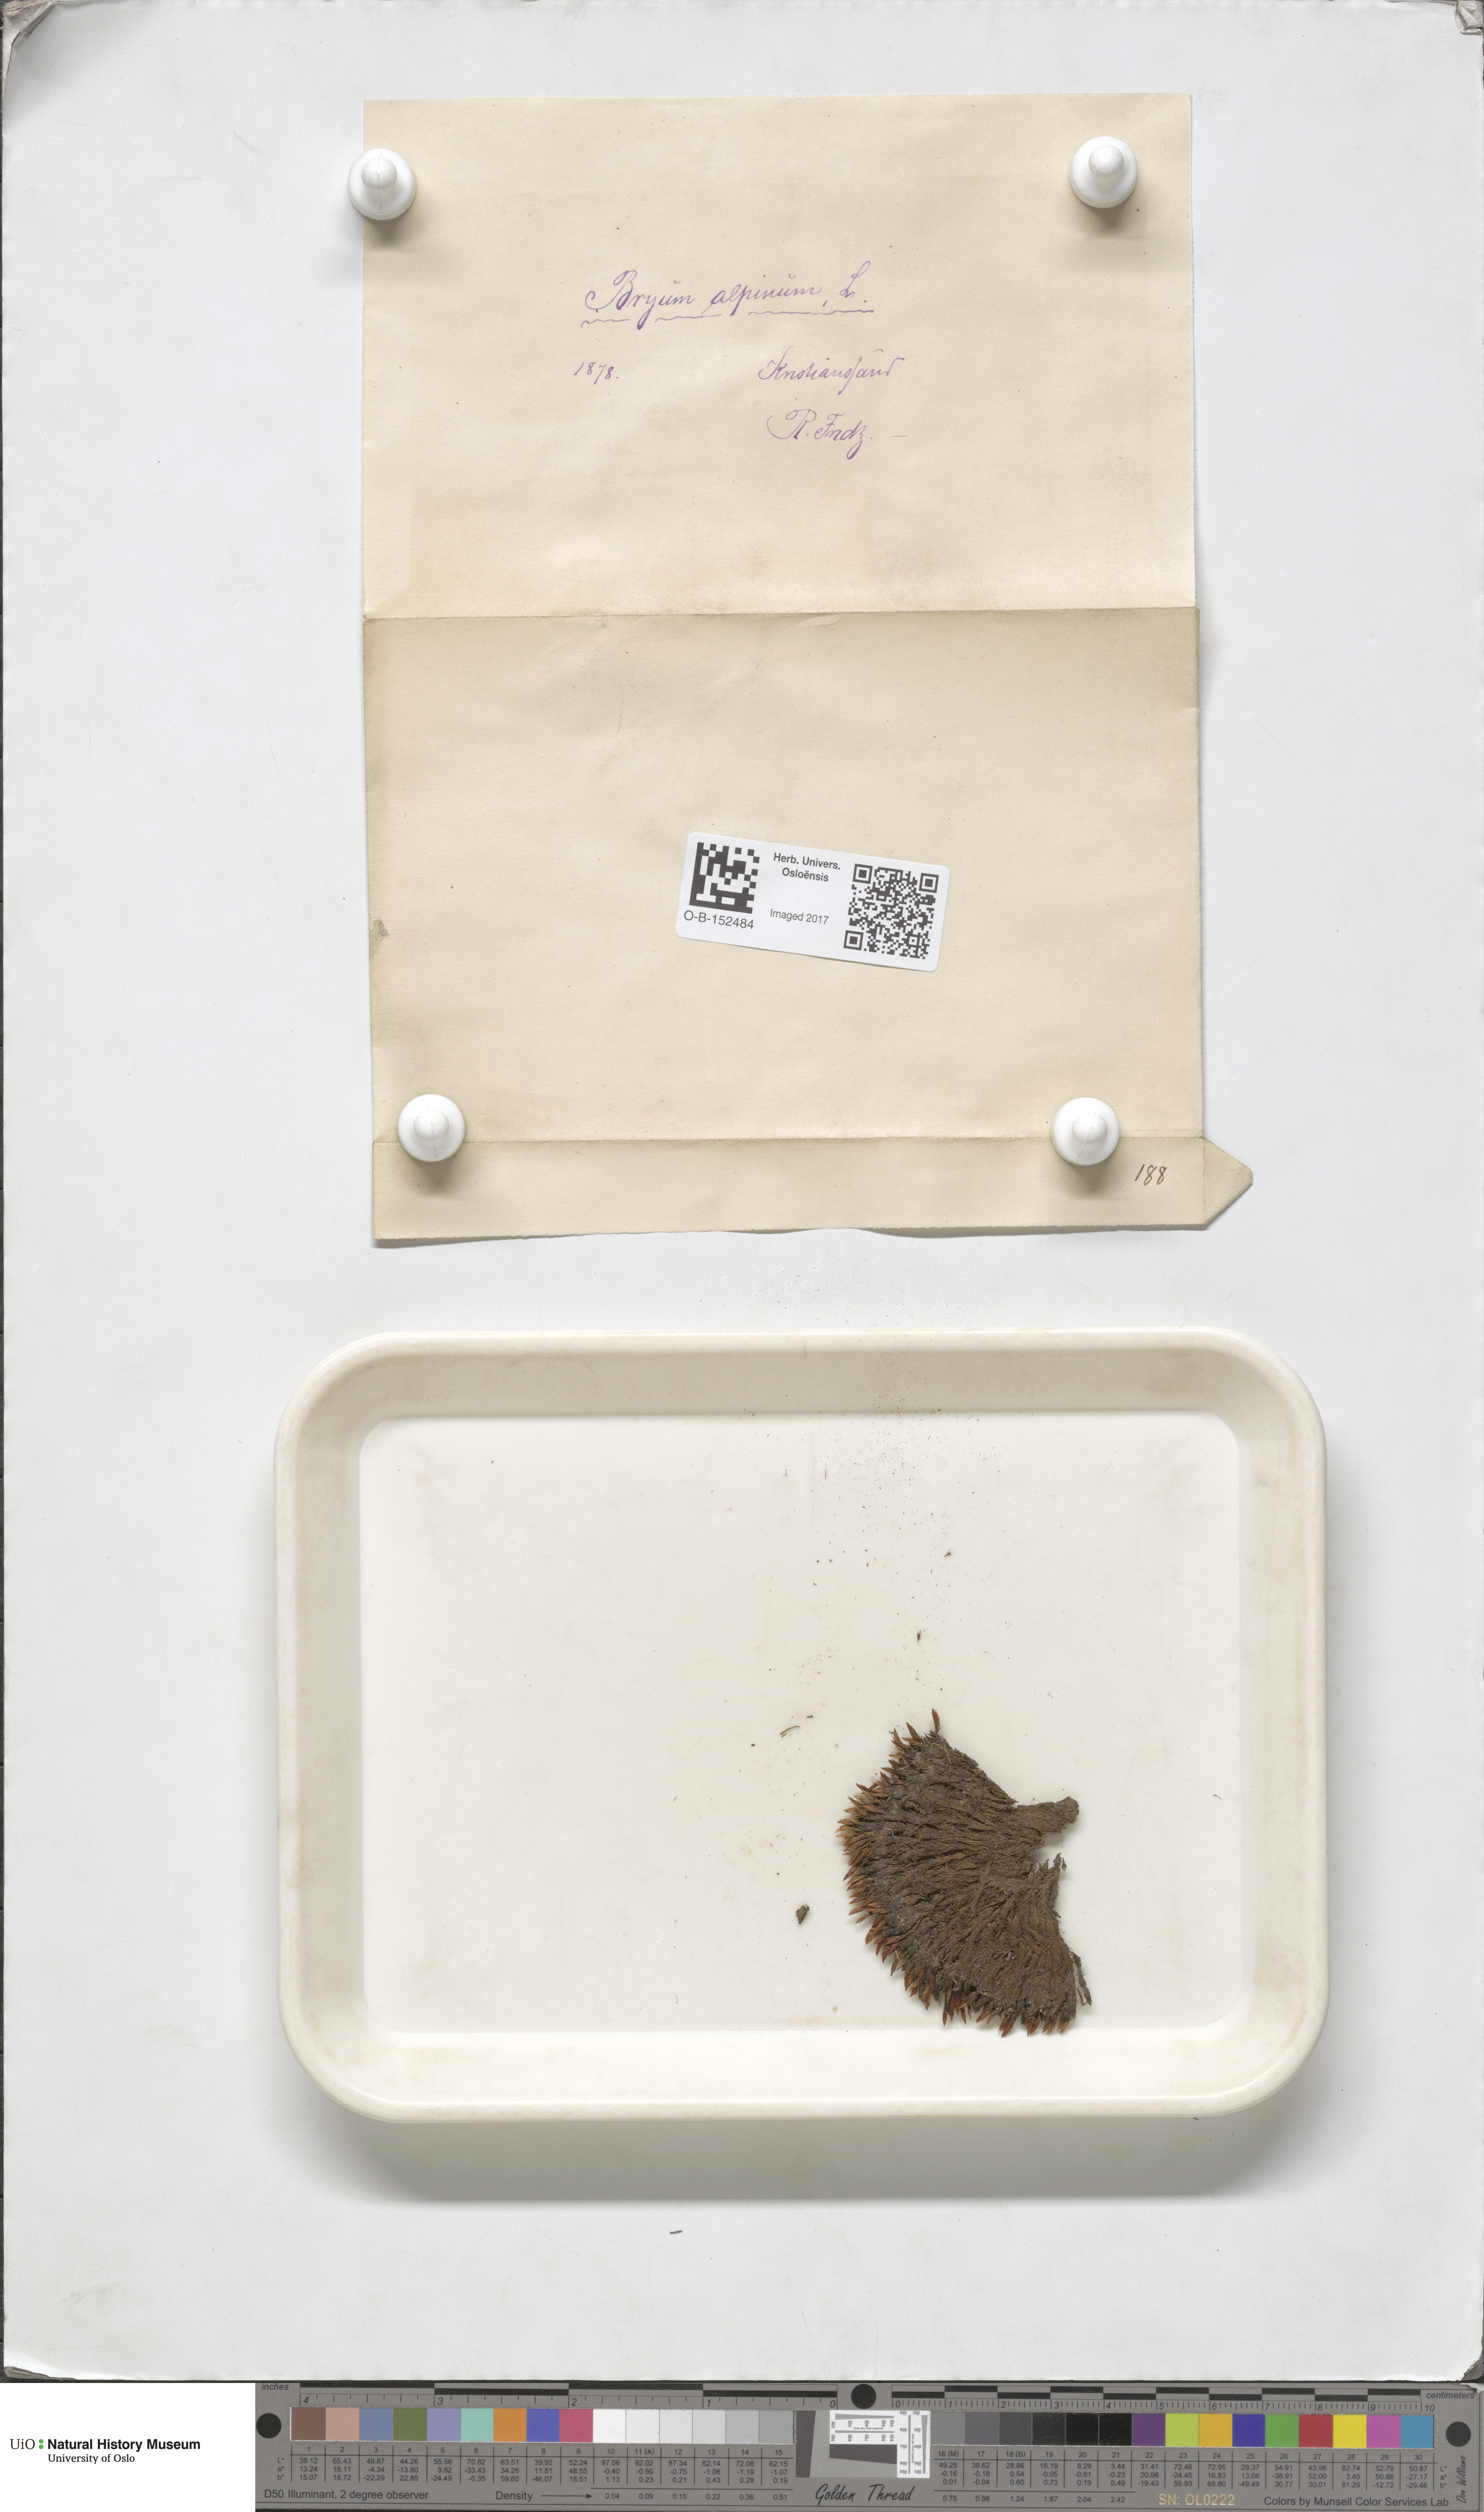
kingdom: Plantae
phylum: Bryophyta
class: Bryopsida
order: Bryales
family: Bryaceae
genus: Imbribryum
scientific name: Imbribryum alpinum
